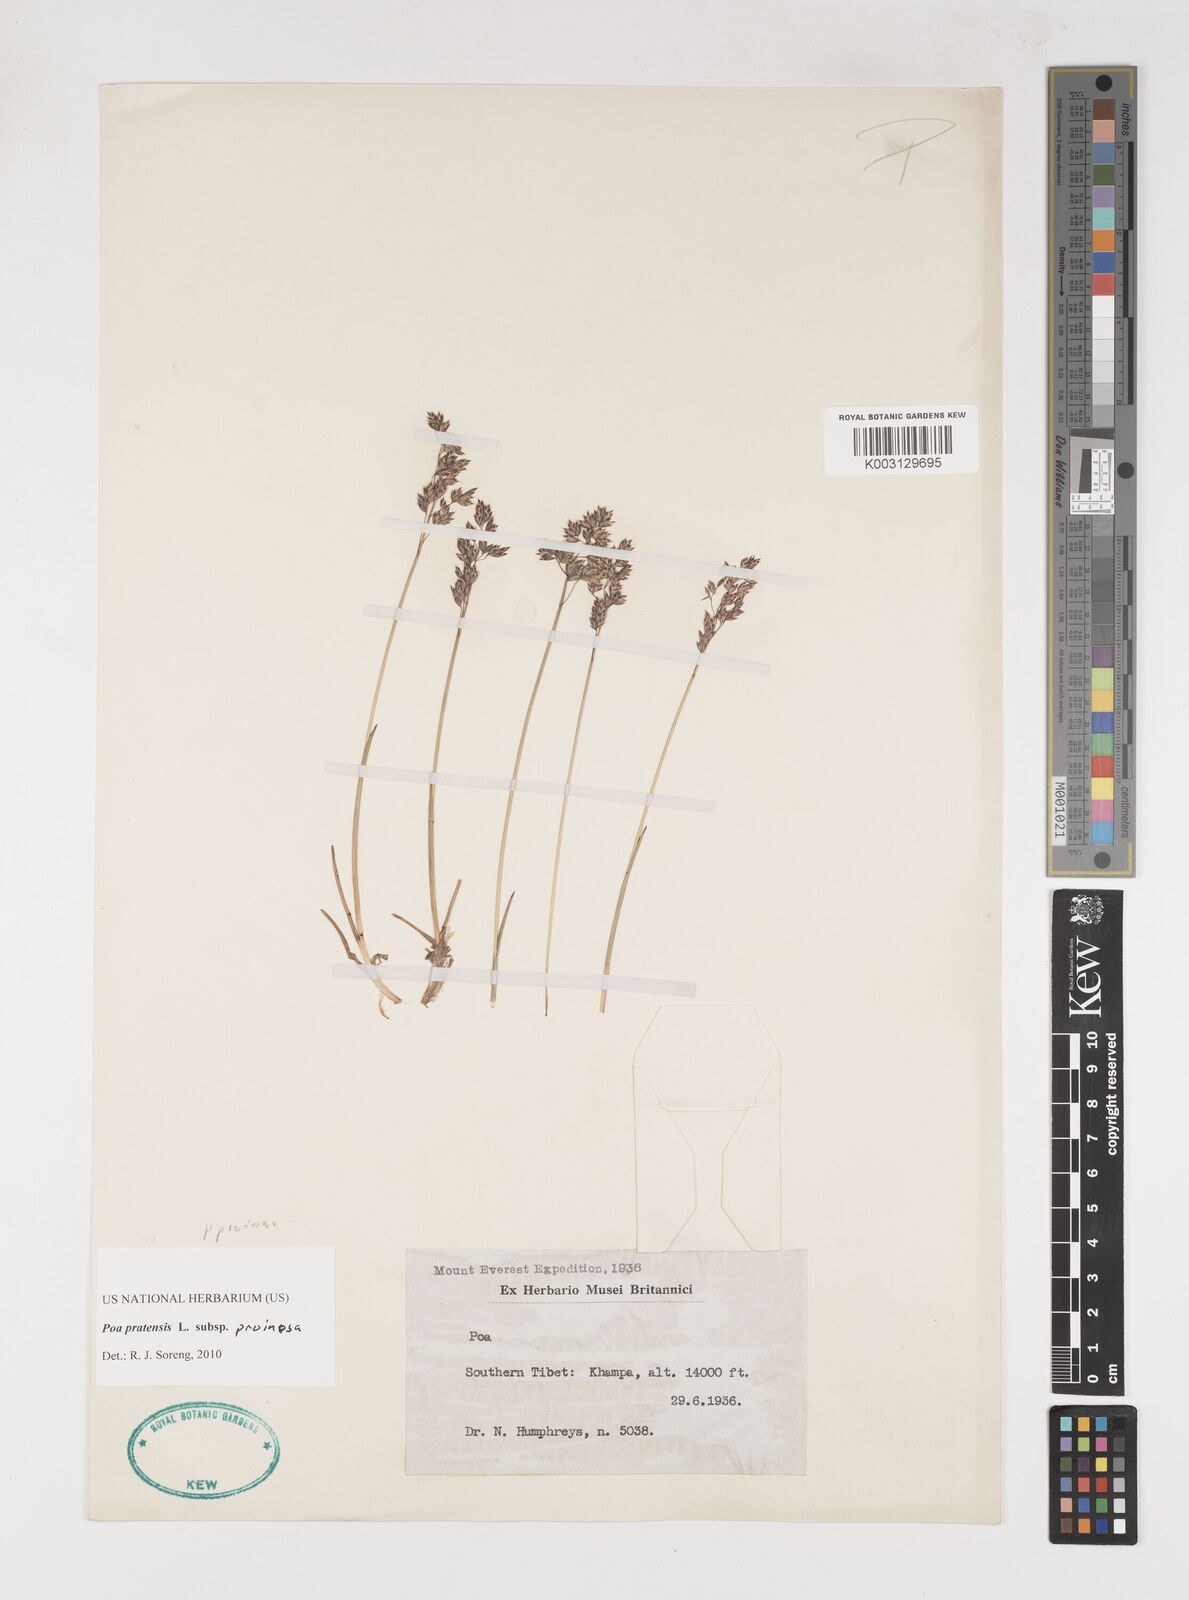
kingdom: Plantae
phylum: Tracheophyta
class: Liliopsida
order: Poales
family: Poaceae
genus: Poa
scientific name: Poa tianschanica
